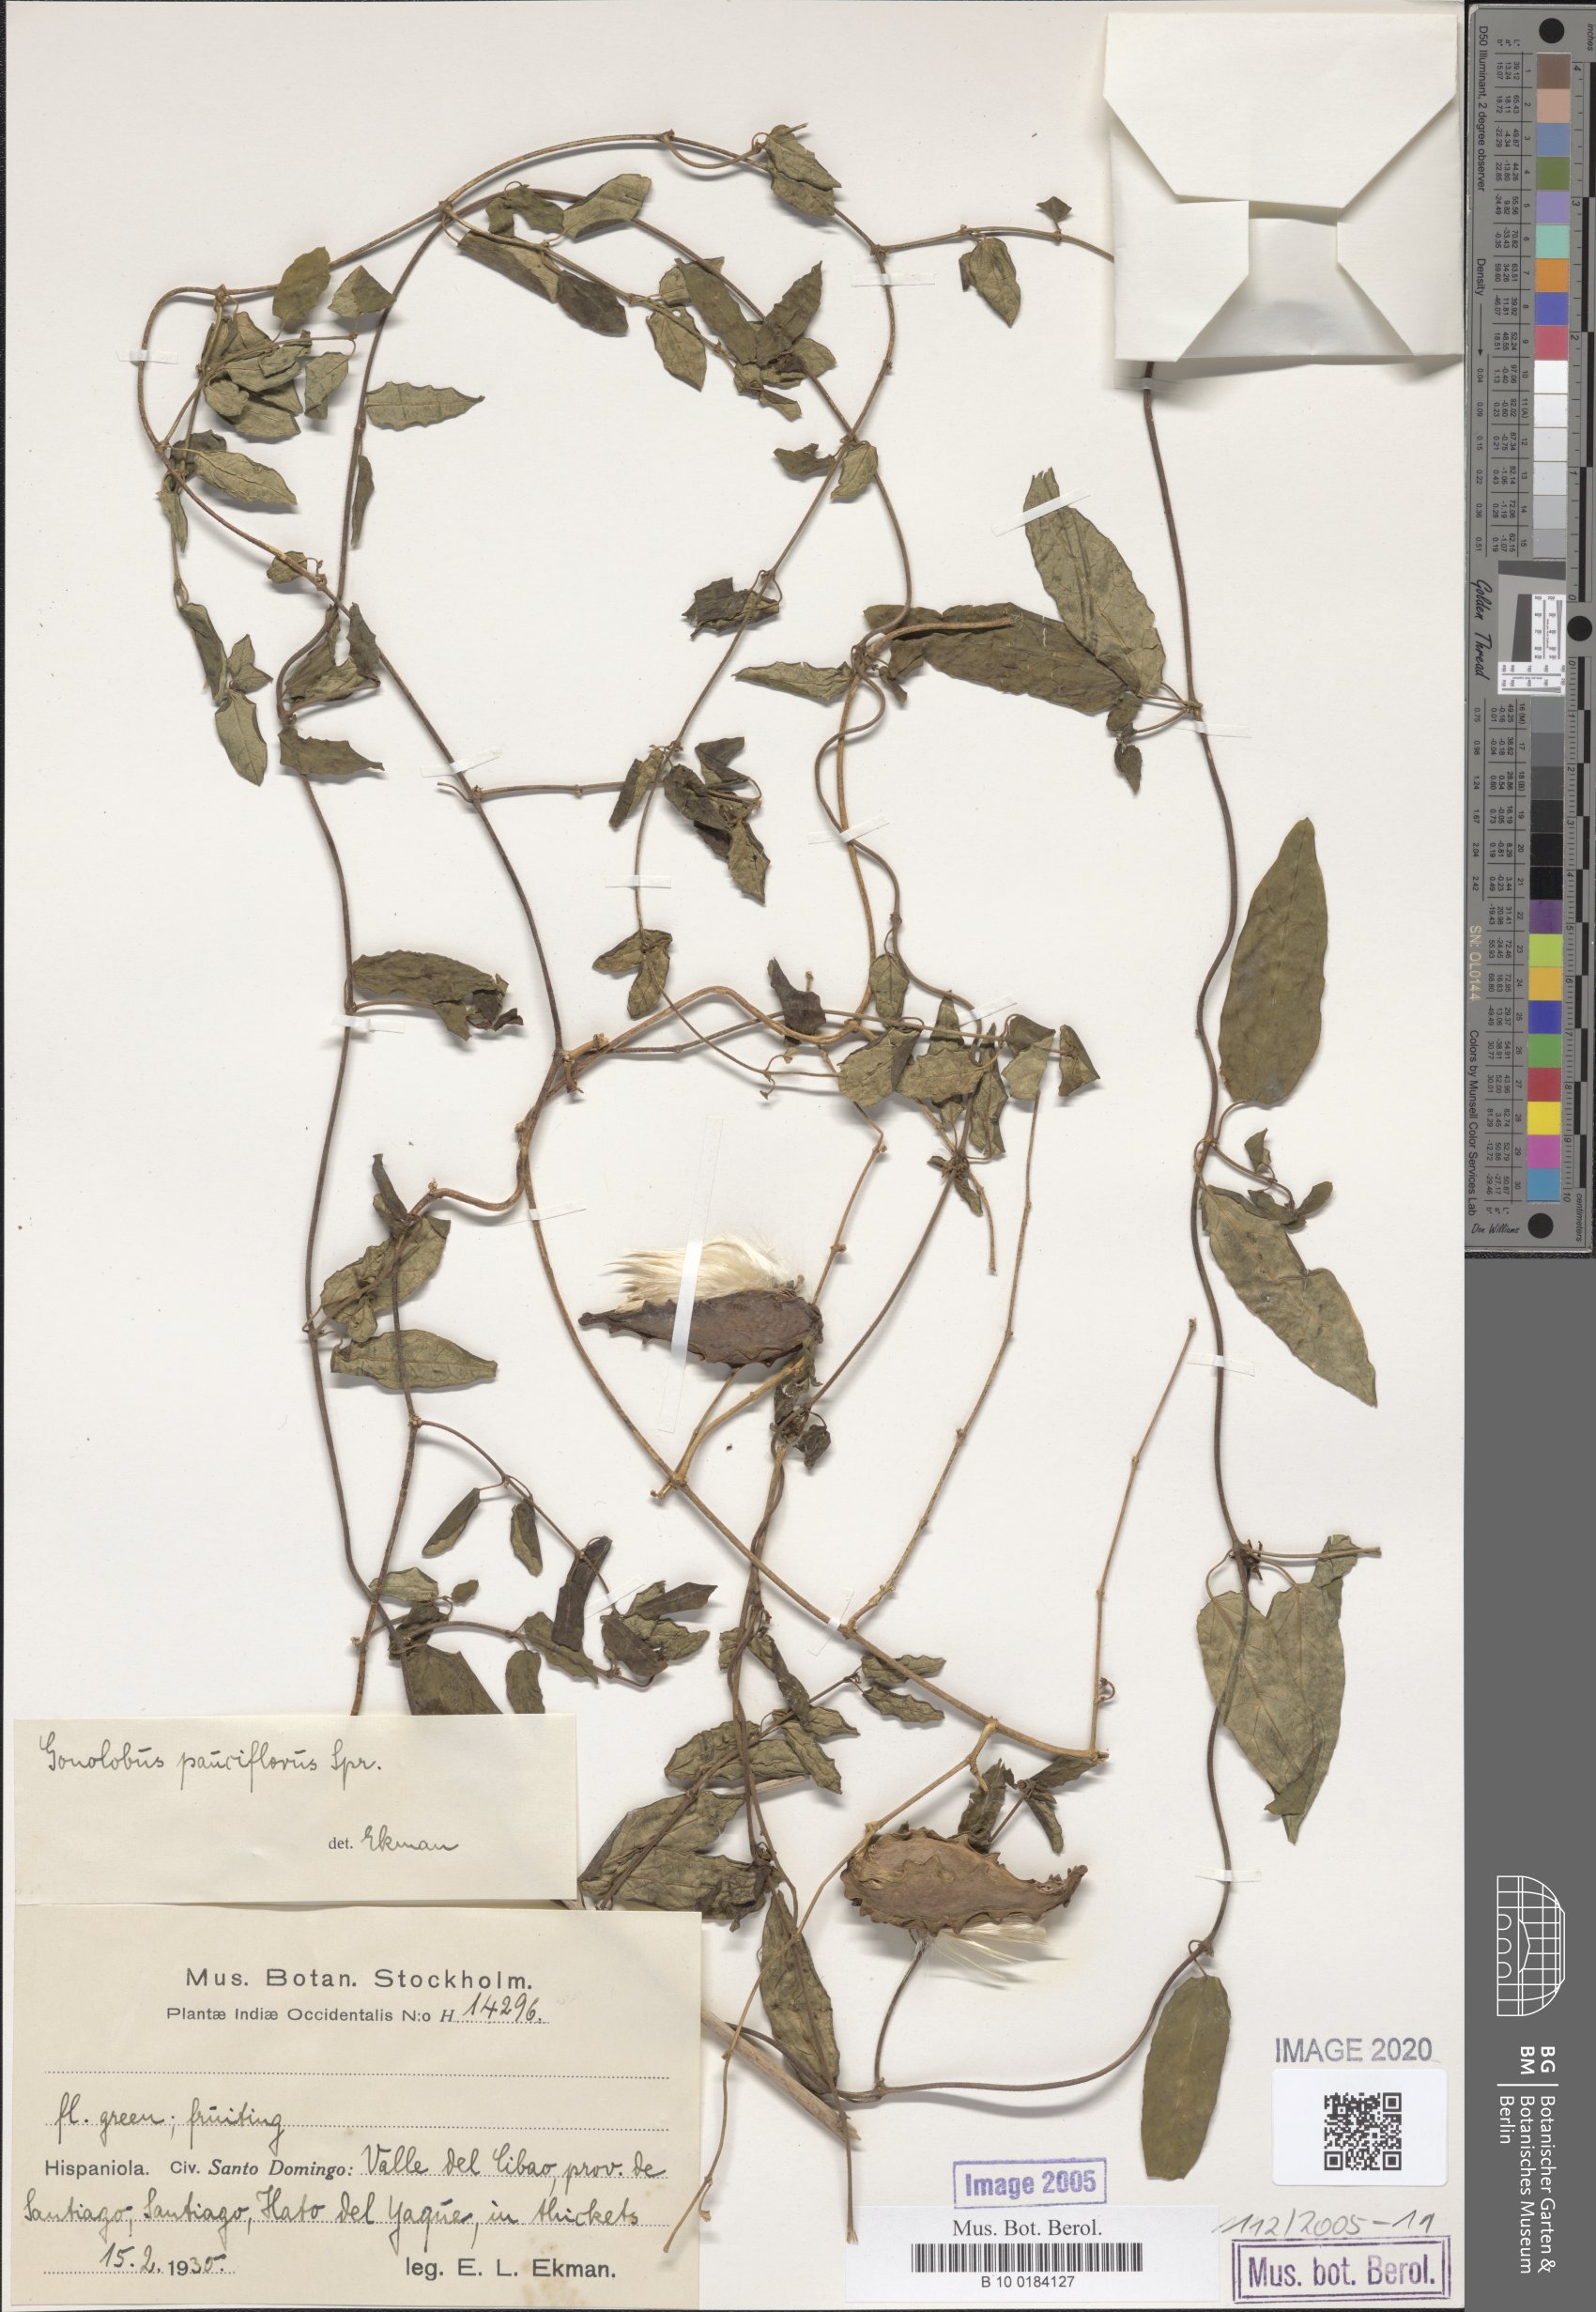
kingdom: Plantae
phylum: Tracheophyta
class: Magnoliopsida
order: Gentianales
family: Apocynaceae
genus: Ptycanthera
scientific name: Ptycanthera berteroi
